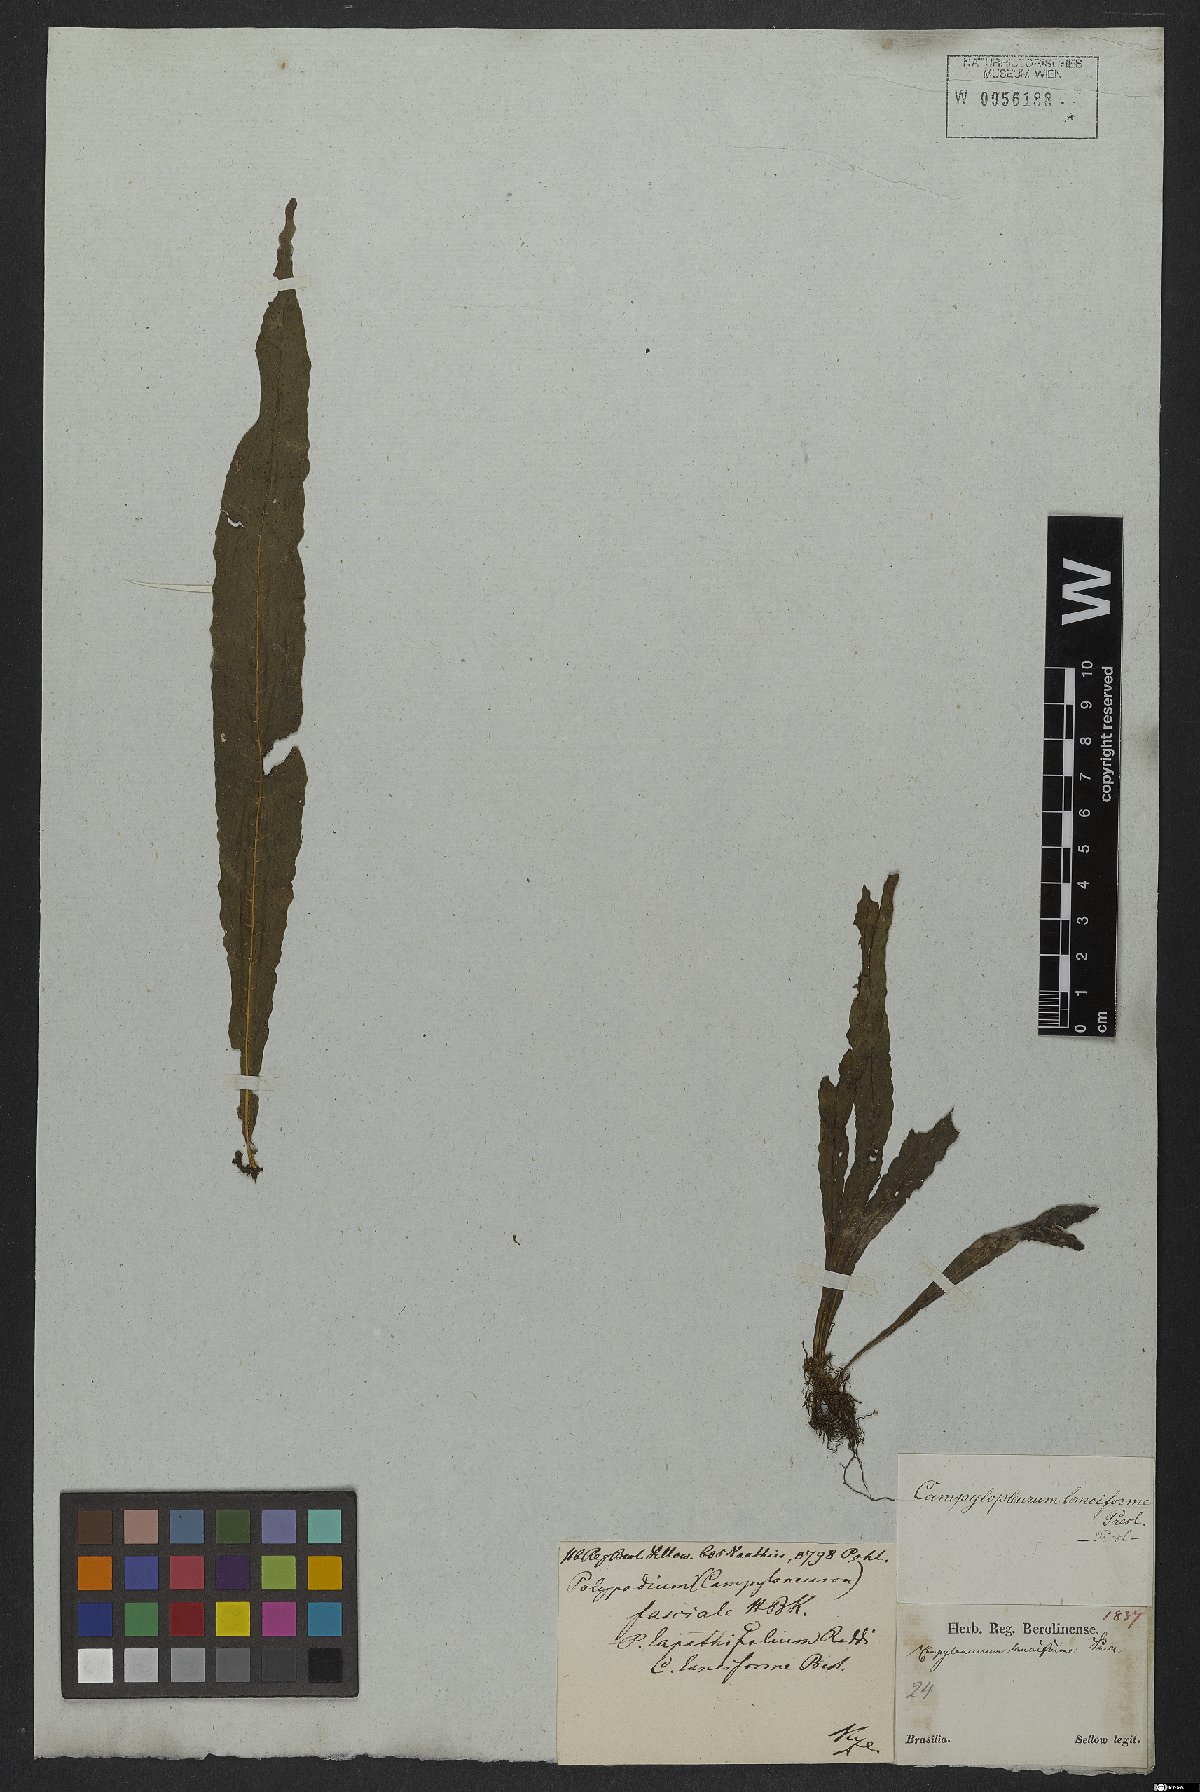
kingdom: Plantae
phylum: Tracheophyta
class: Polypodiopsida
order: Polypodiales
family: Polypodiaceae
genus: Serpocaulon
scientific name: Serpocaulon levigatum
